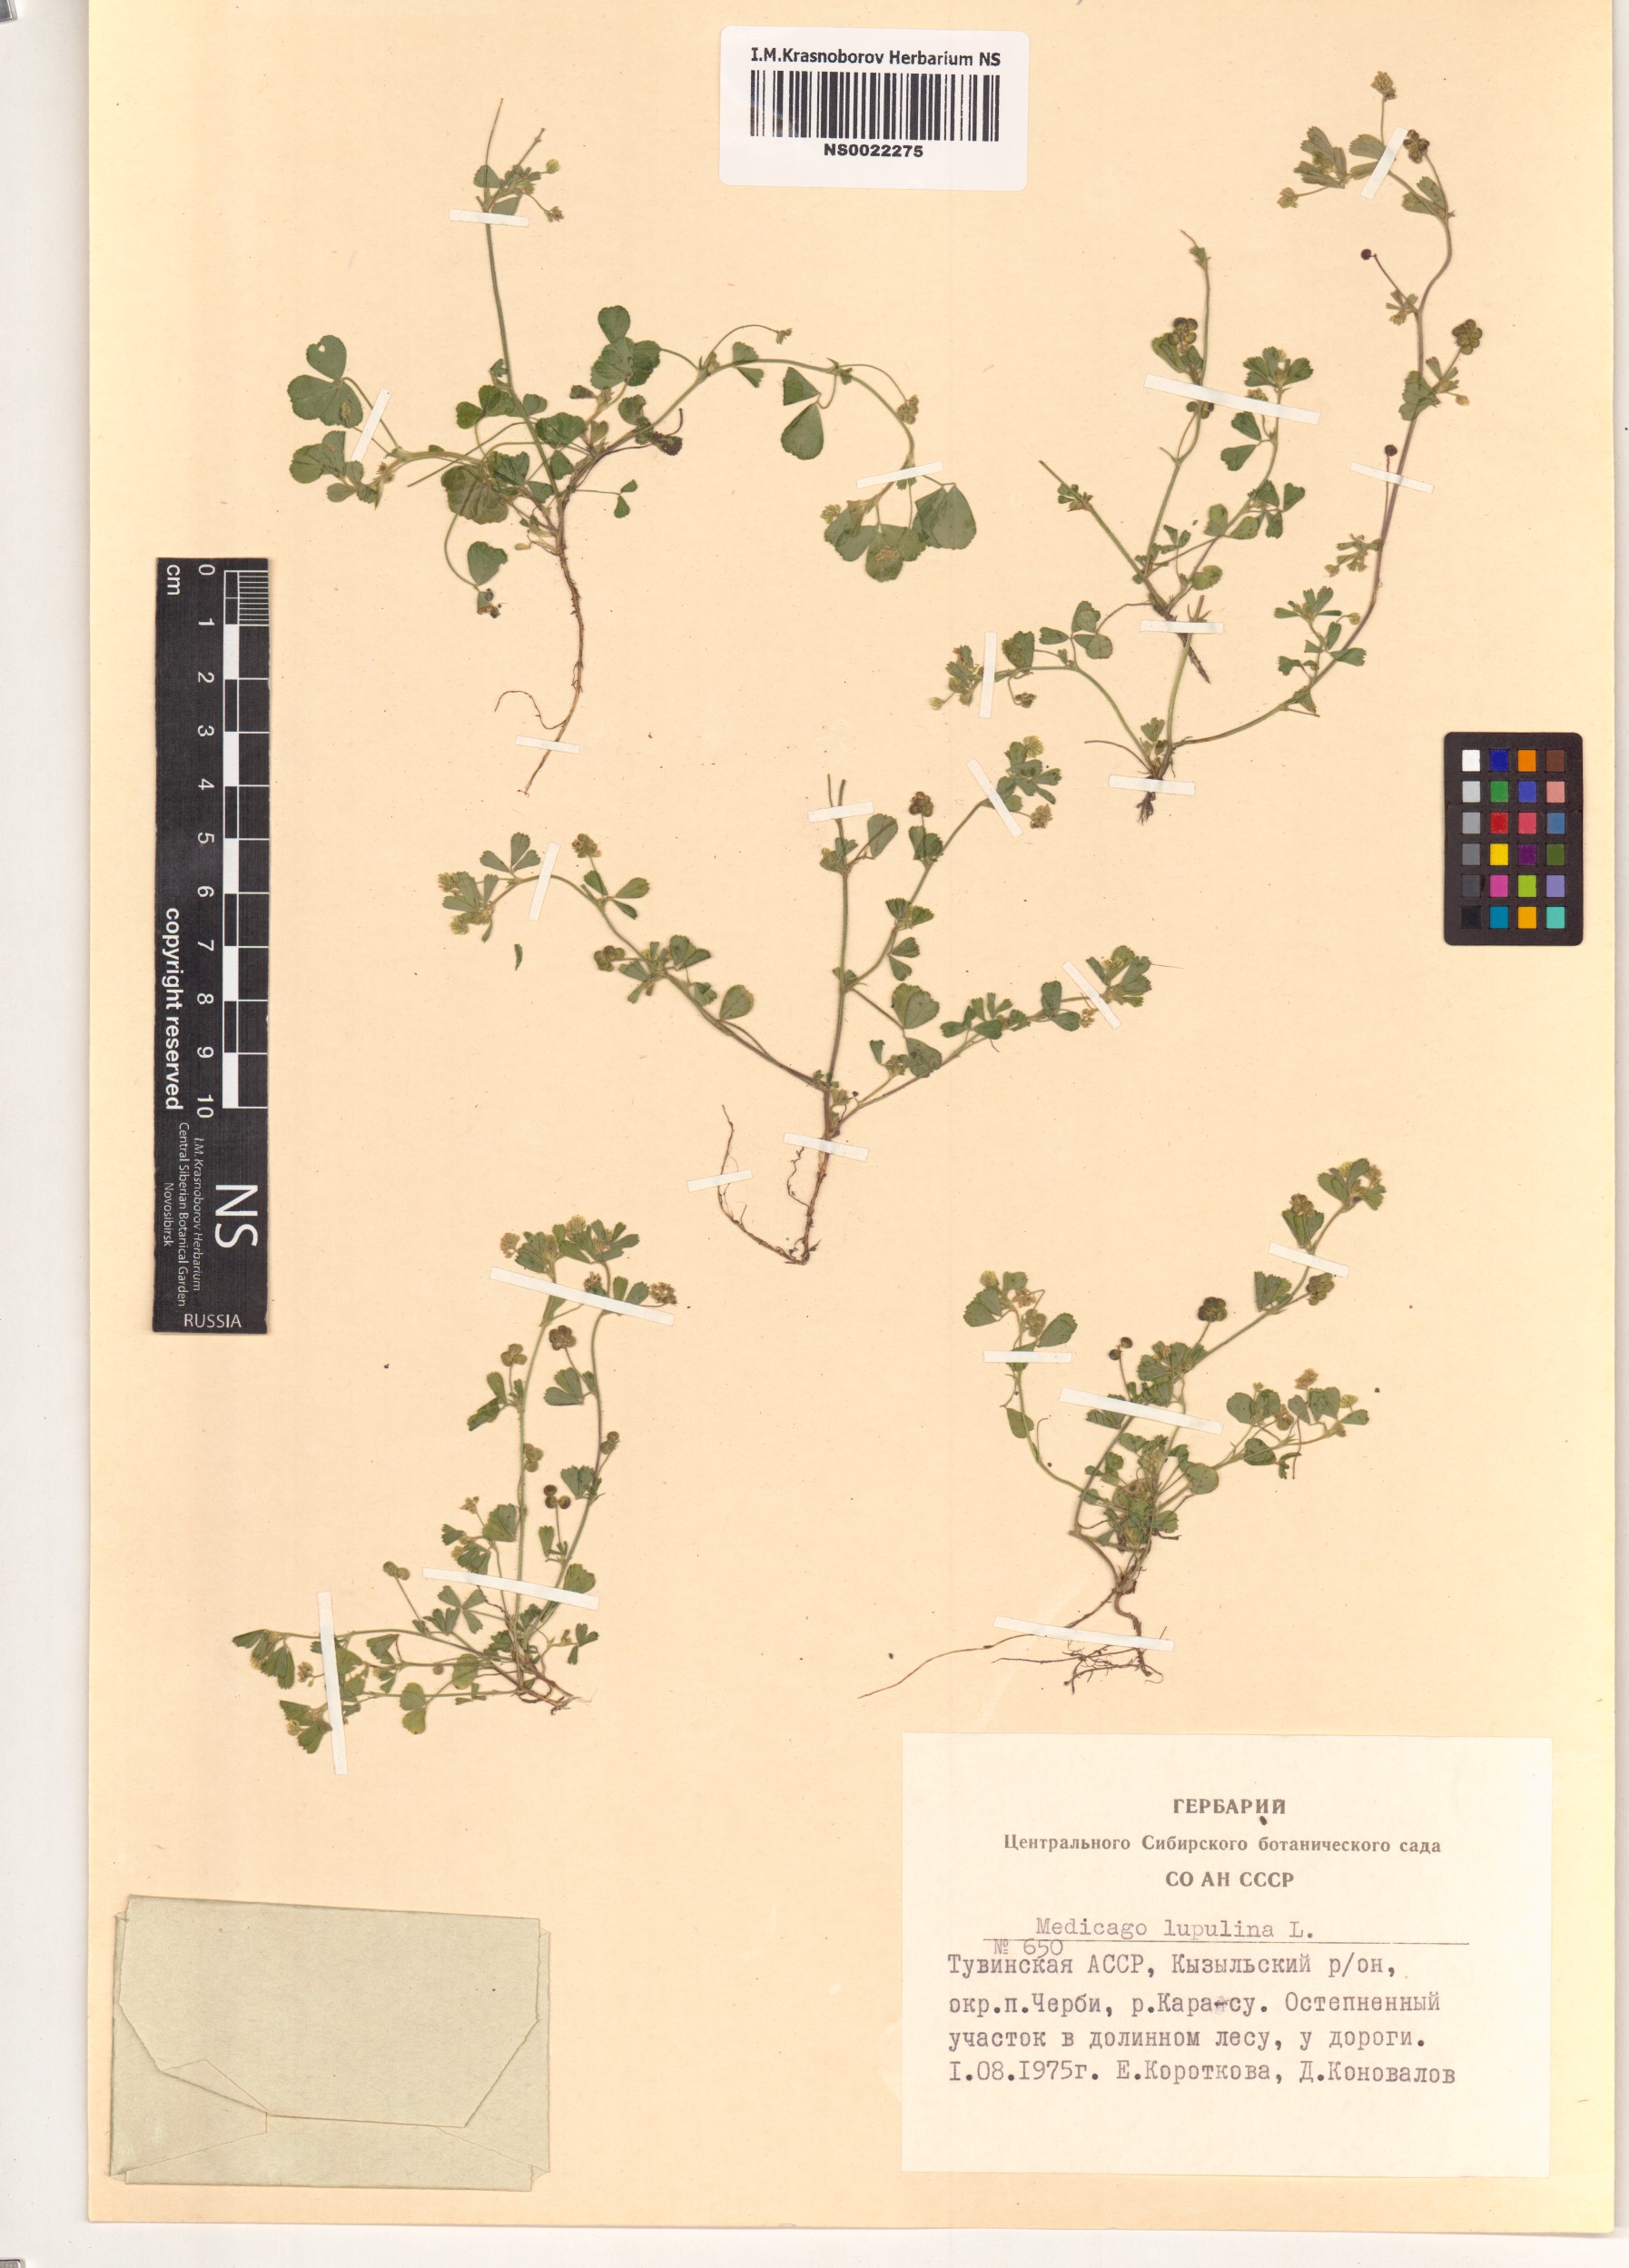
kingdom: Plantae
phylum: Tracheophyta
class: Magnoliopsida
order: Fabales
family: Fabaceae
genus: Medicago
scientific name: Medicago lupulina
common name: Black medick
